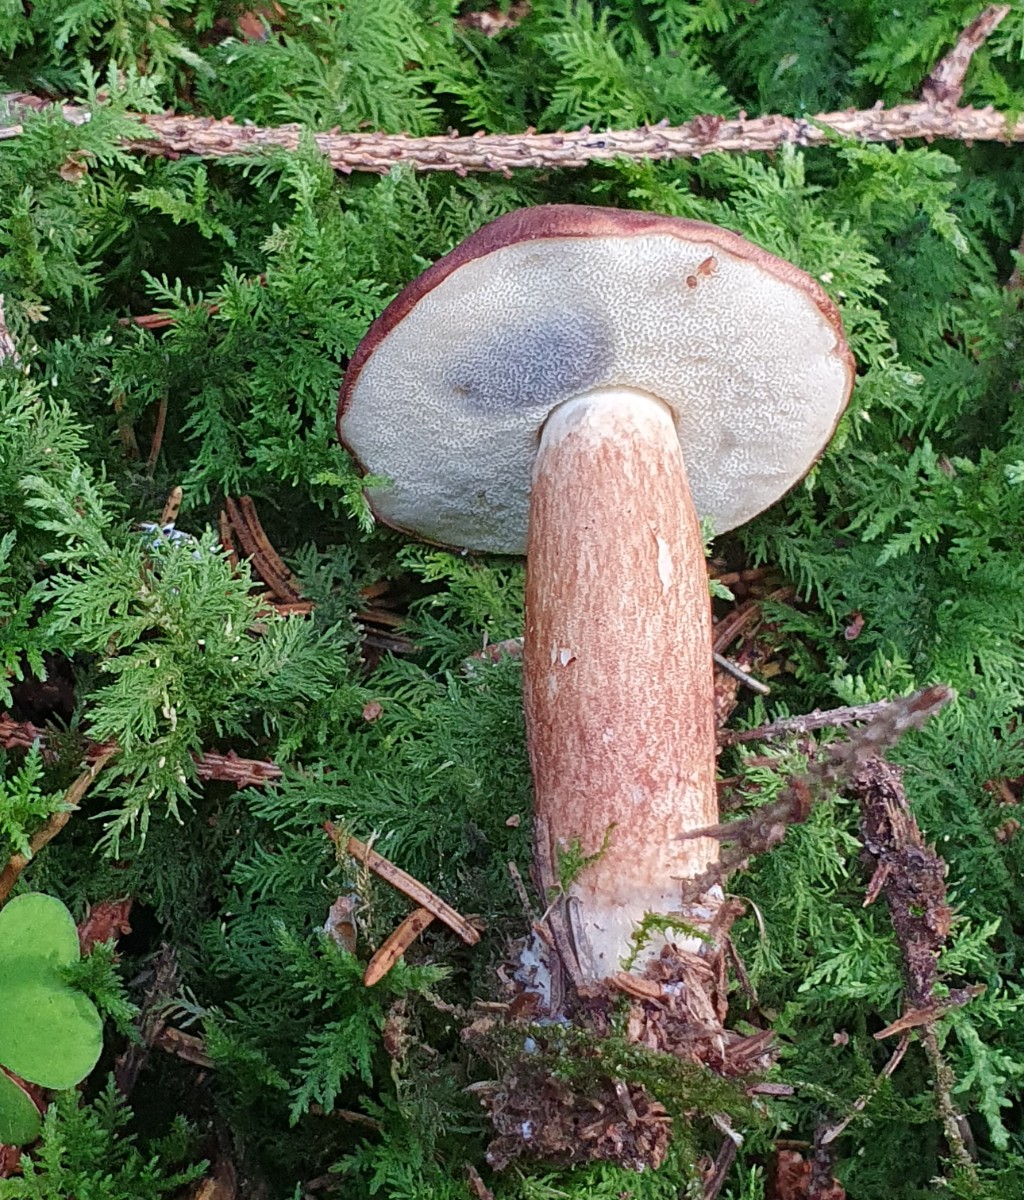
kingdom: Fungi
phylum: Basidiomycota
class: Agaricomycetes
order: Boletales
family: Boletaceae
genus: Imleria
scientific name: Imleria badia
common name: brunstokket rørhat
